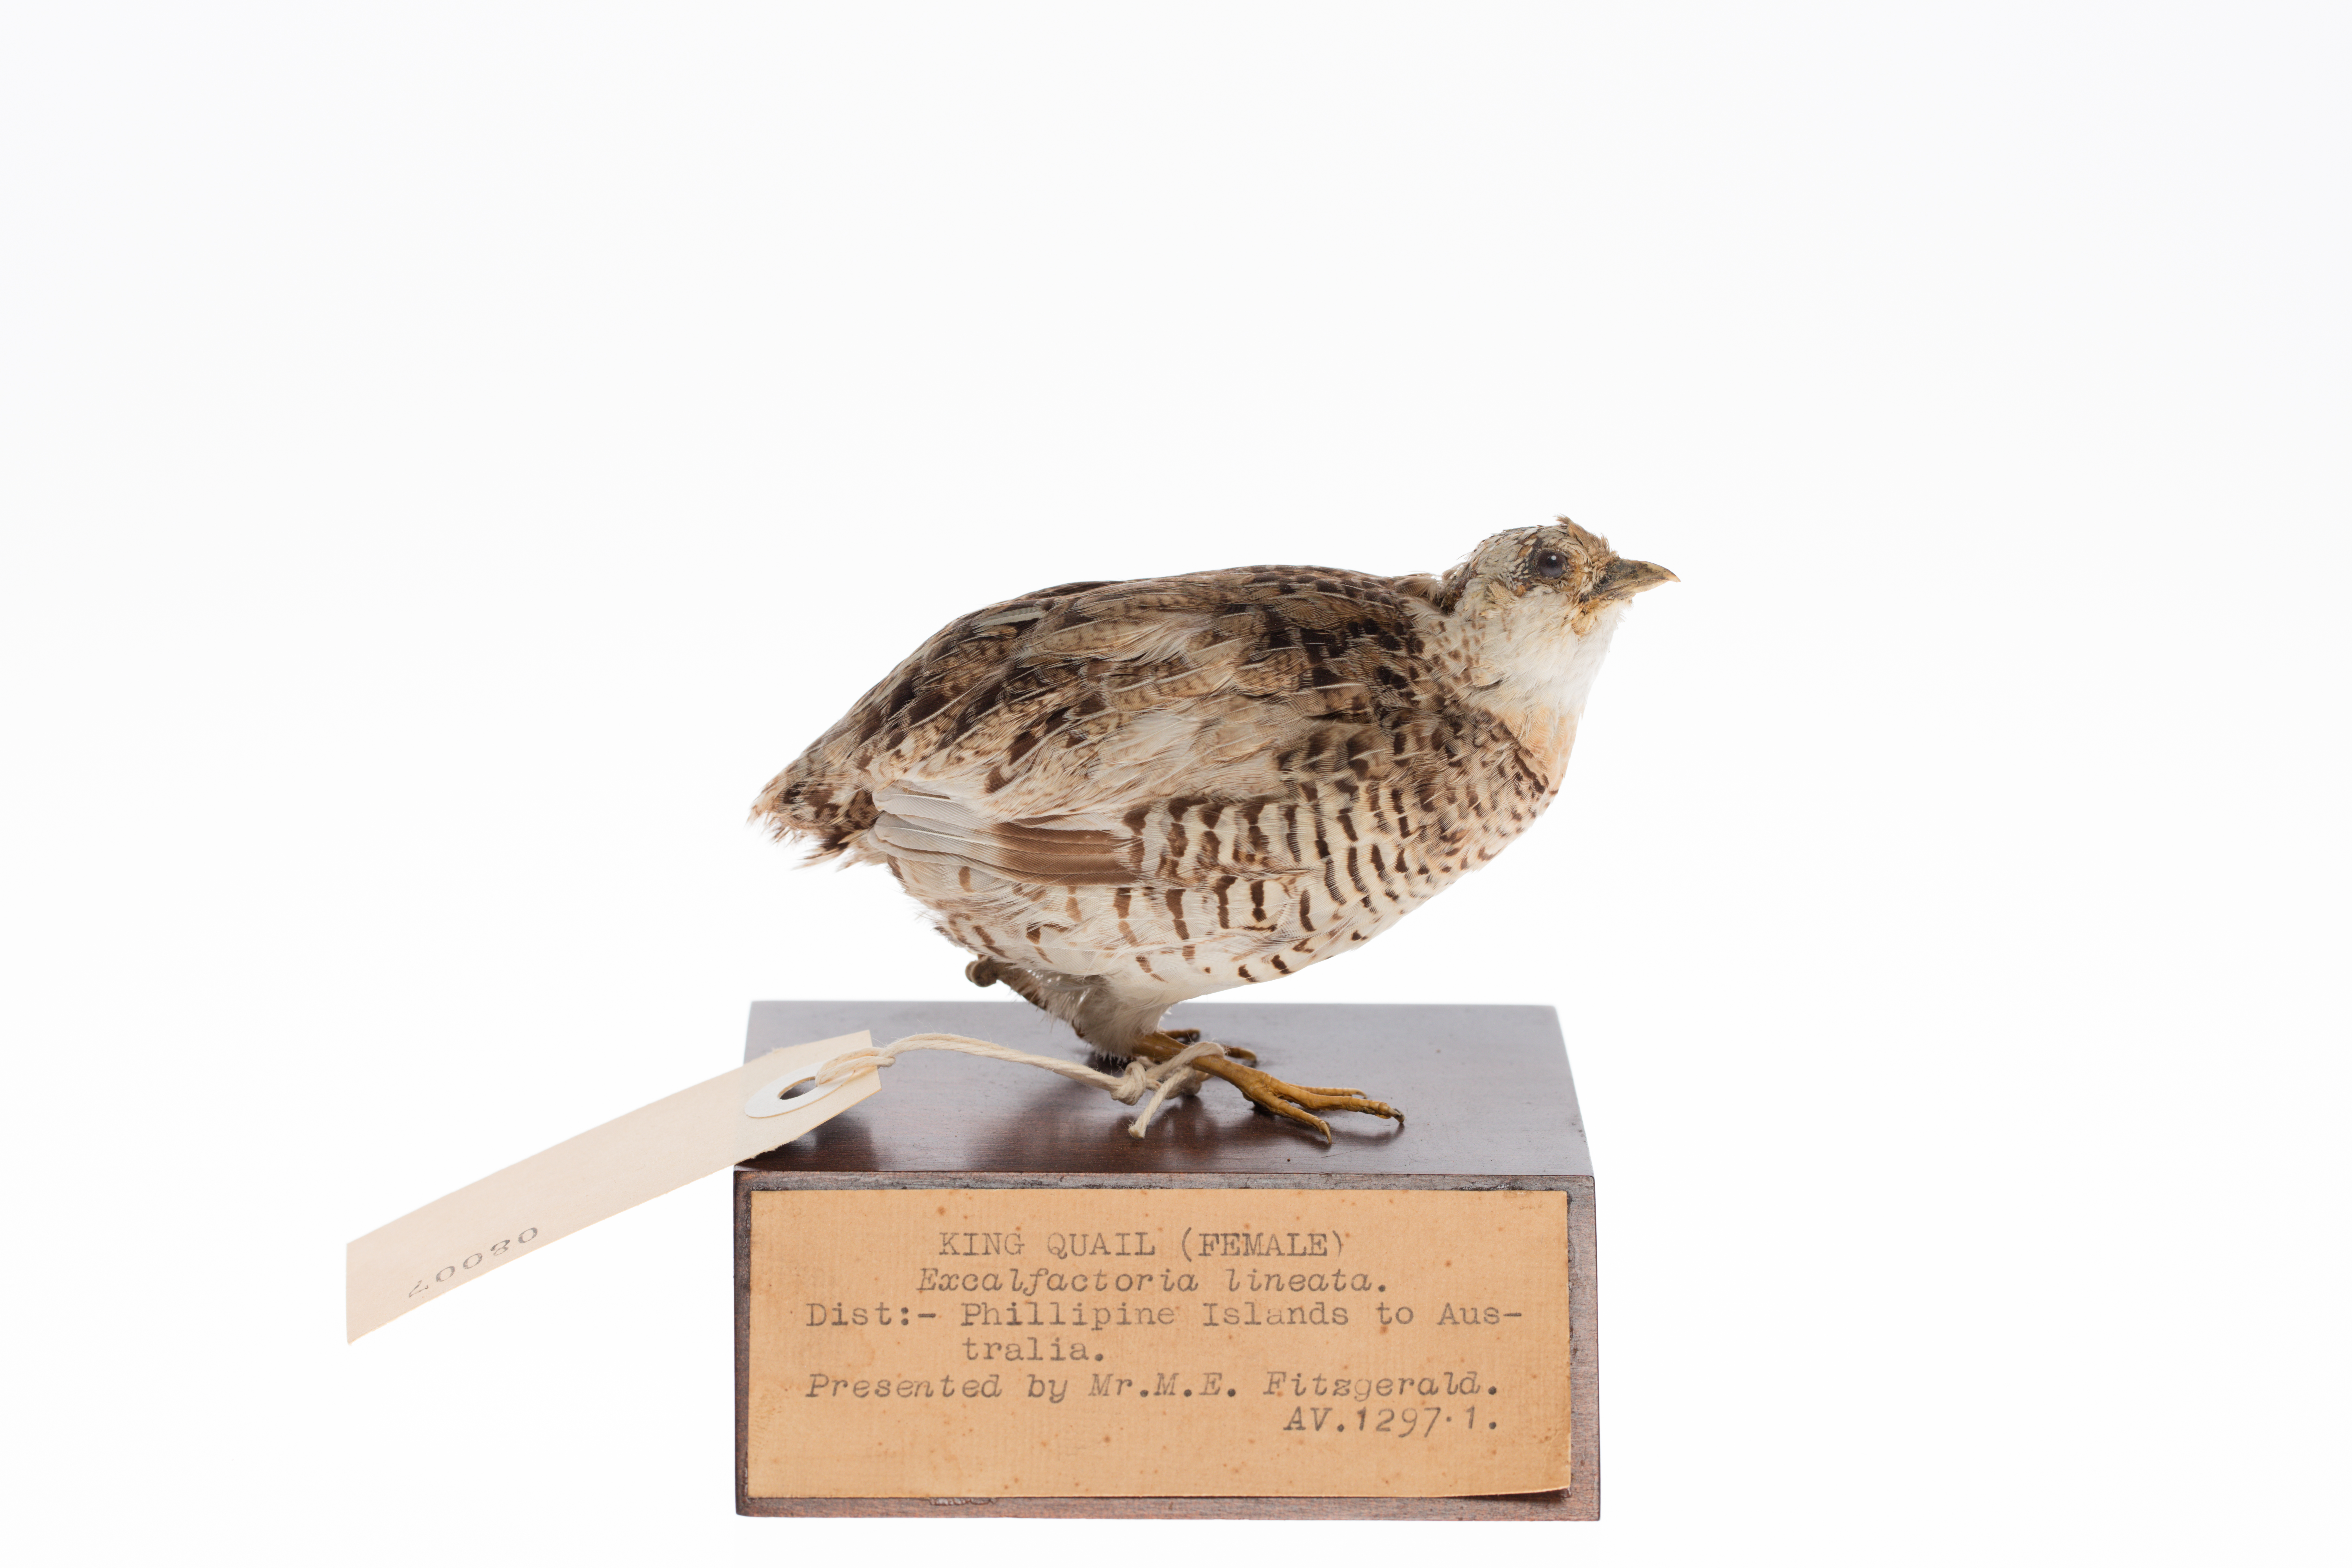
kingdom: Animalia
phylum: Chordata
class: Aves
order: Galliformes
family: Phasianidae
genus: Synoicus
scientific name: Synoicus chinensis
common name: Blue-breasted quail
